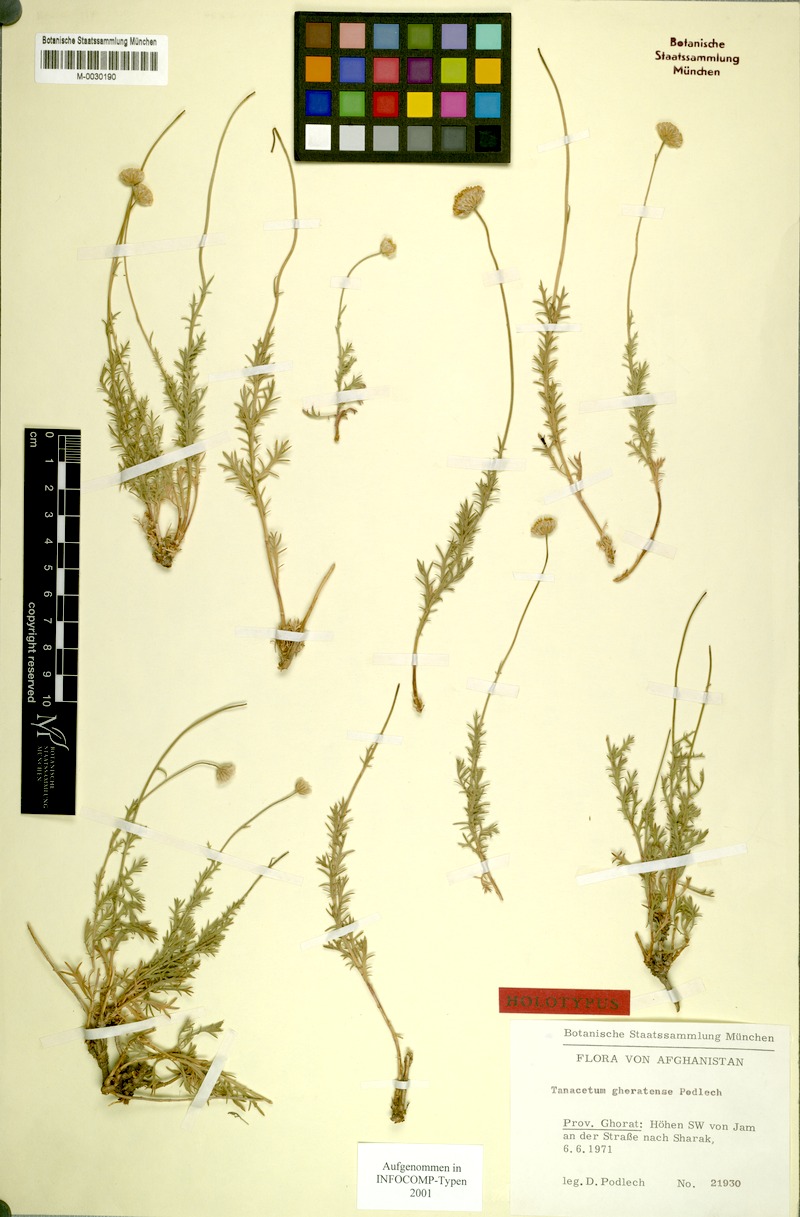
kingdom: Plantae
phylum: Tracheophyta
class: Magnoliopsida
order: Asterales
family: Asteraceae
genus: Tanacetum
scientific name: Tanacetum ghoratense
